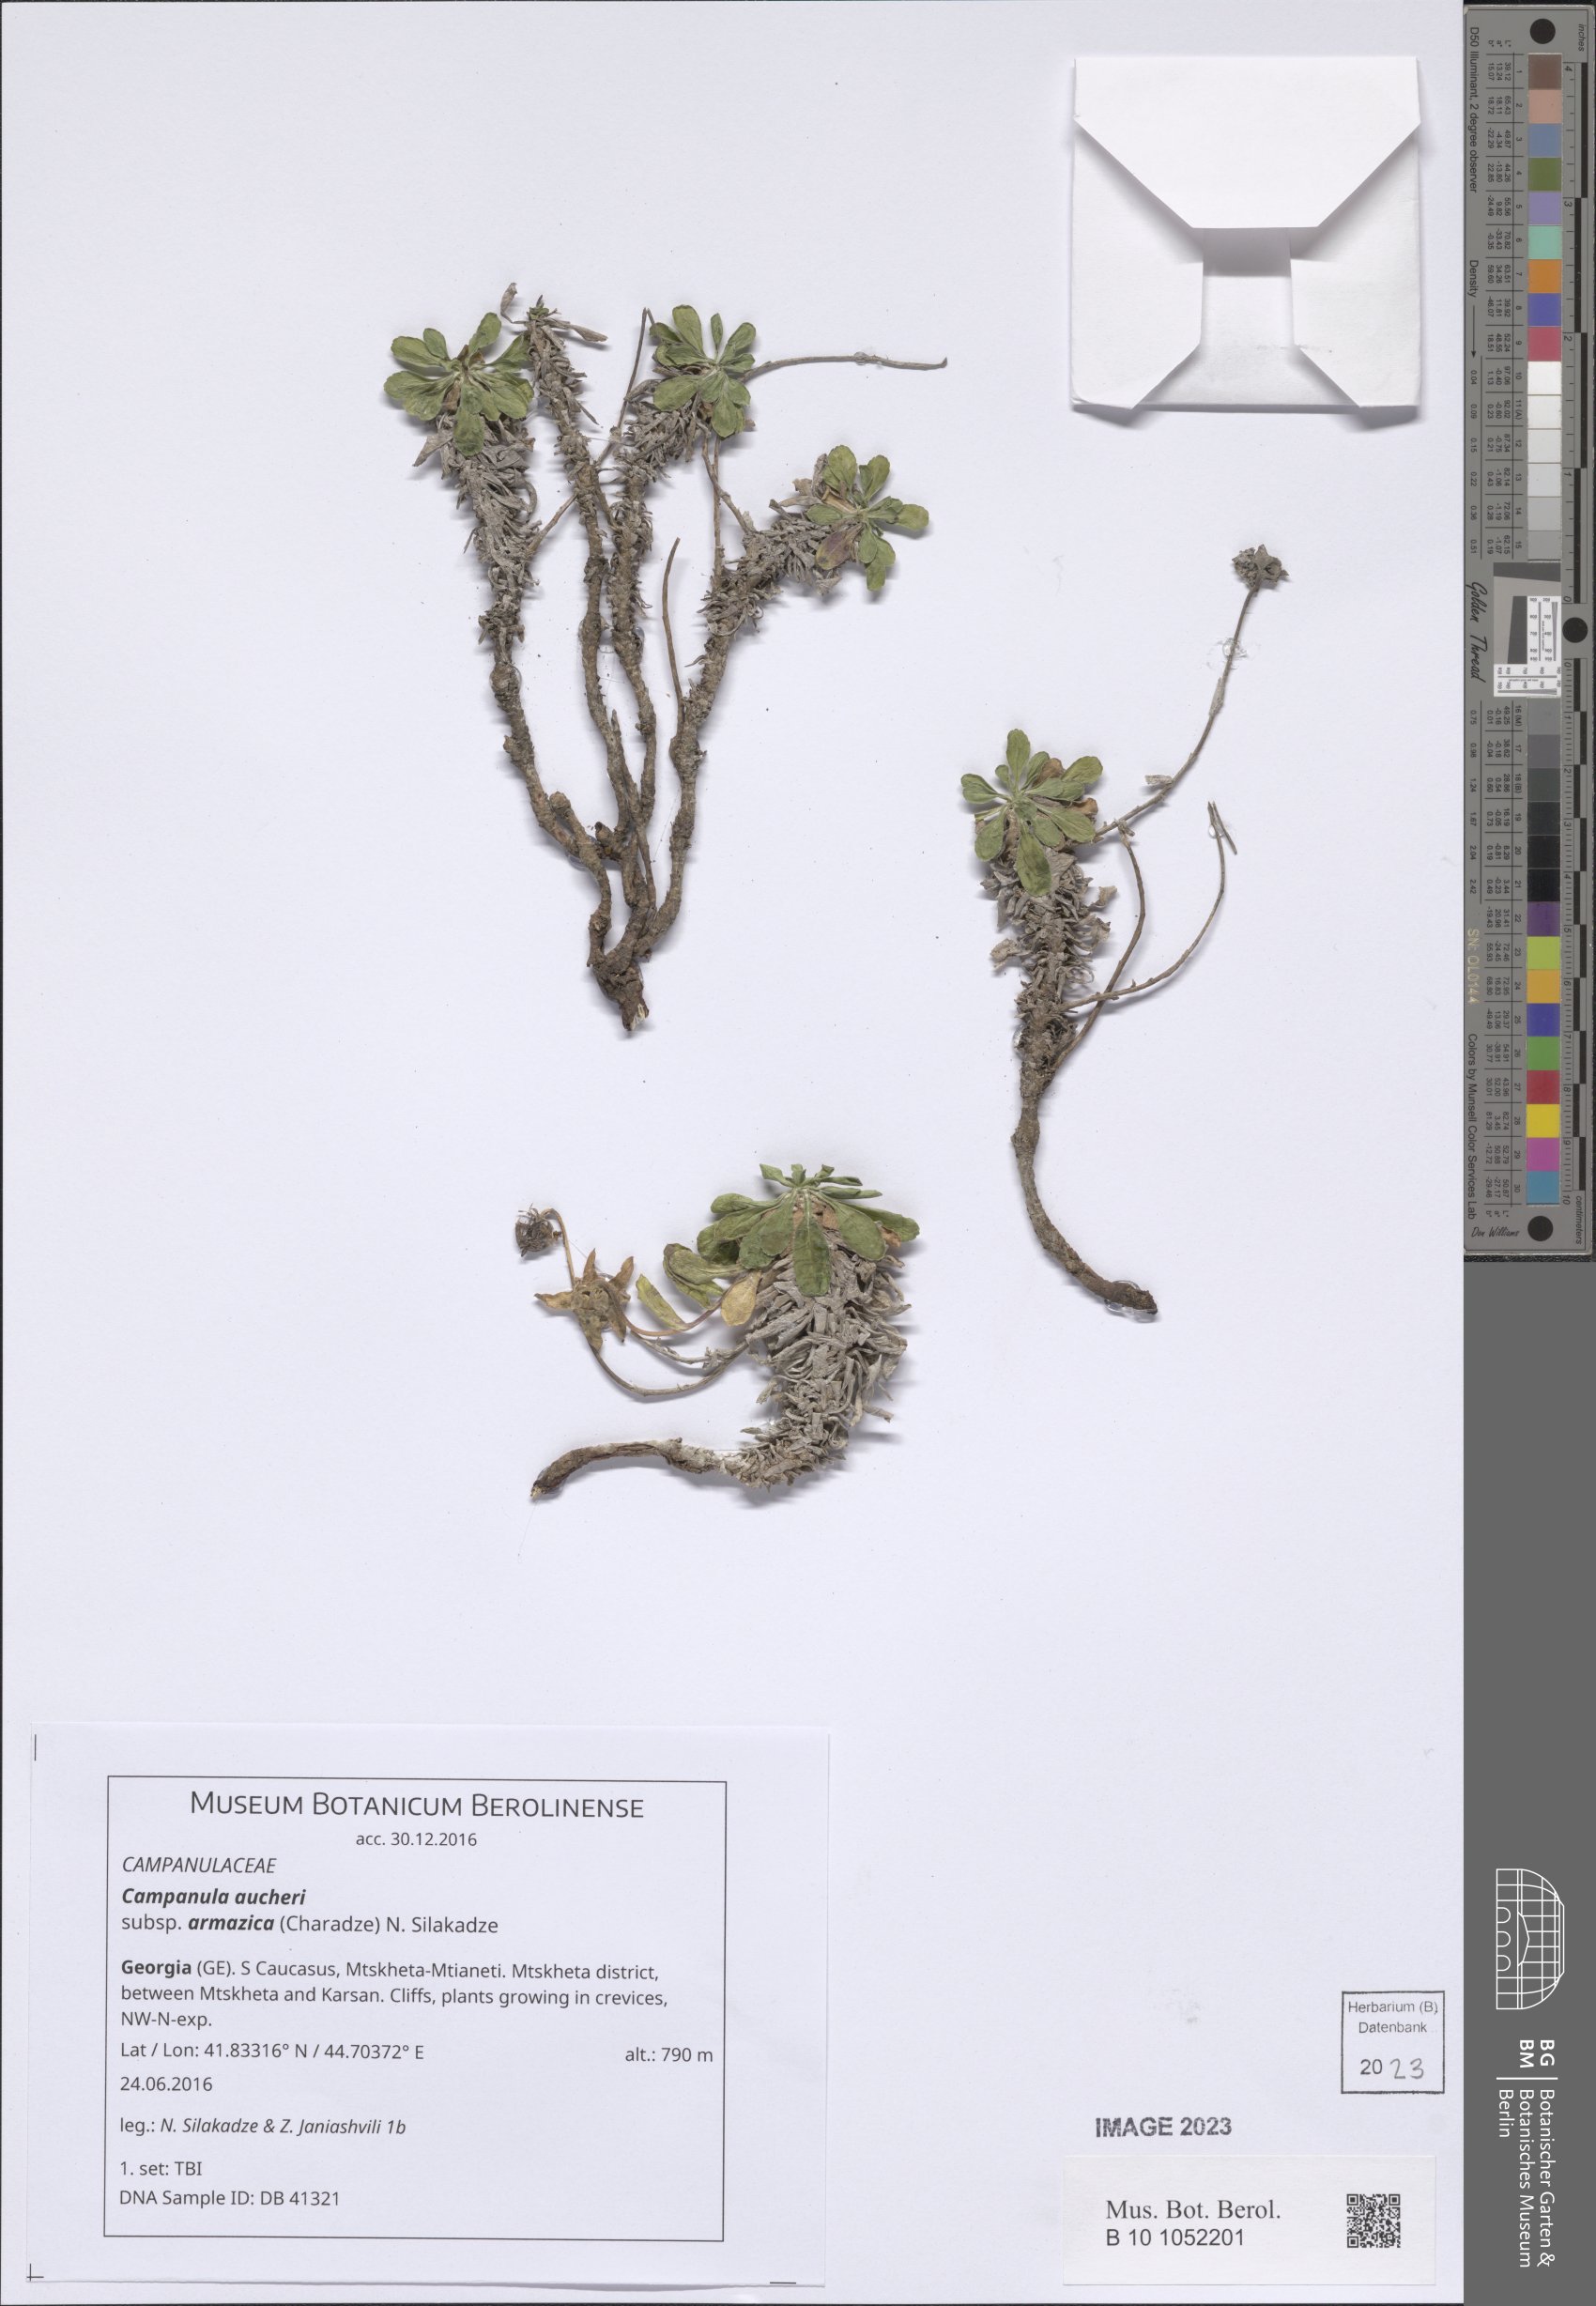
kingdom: Plantae
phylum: Tracheophyta
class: Magnoliopsida
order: Asterales
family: Campanulaceae
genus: Campanula
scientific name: Campanula saxifraga
